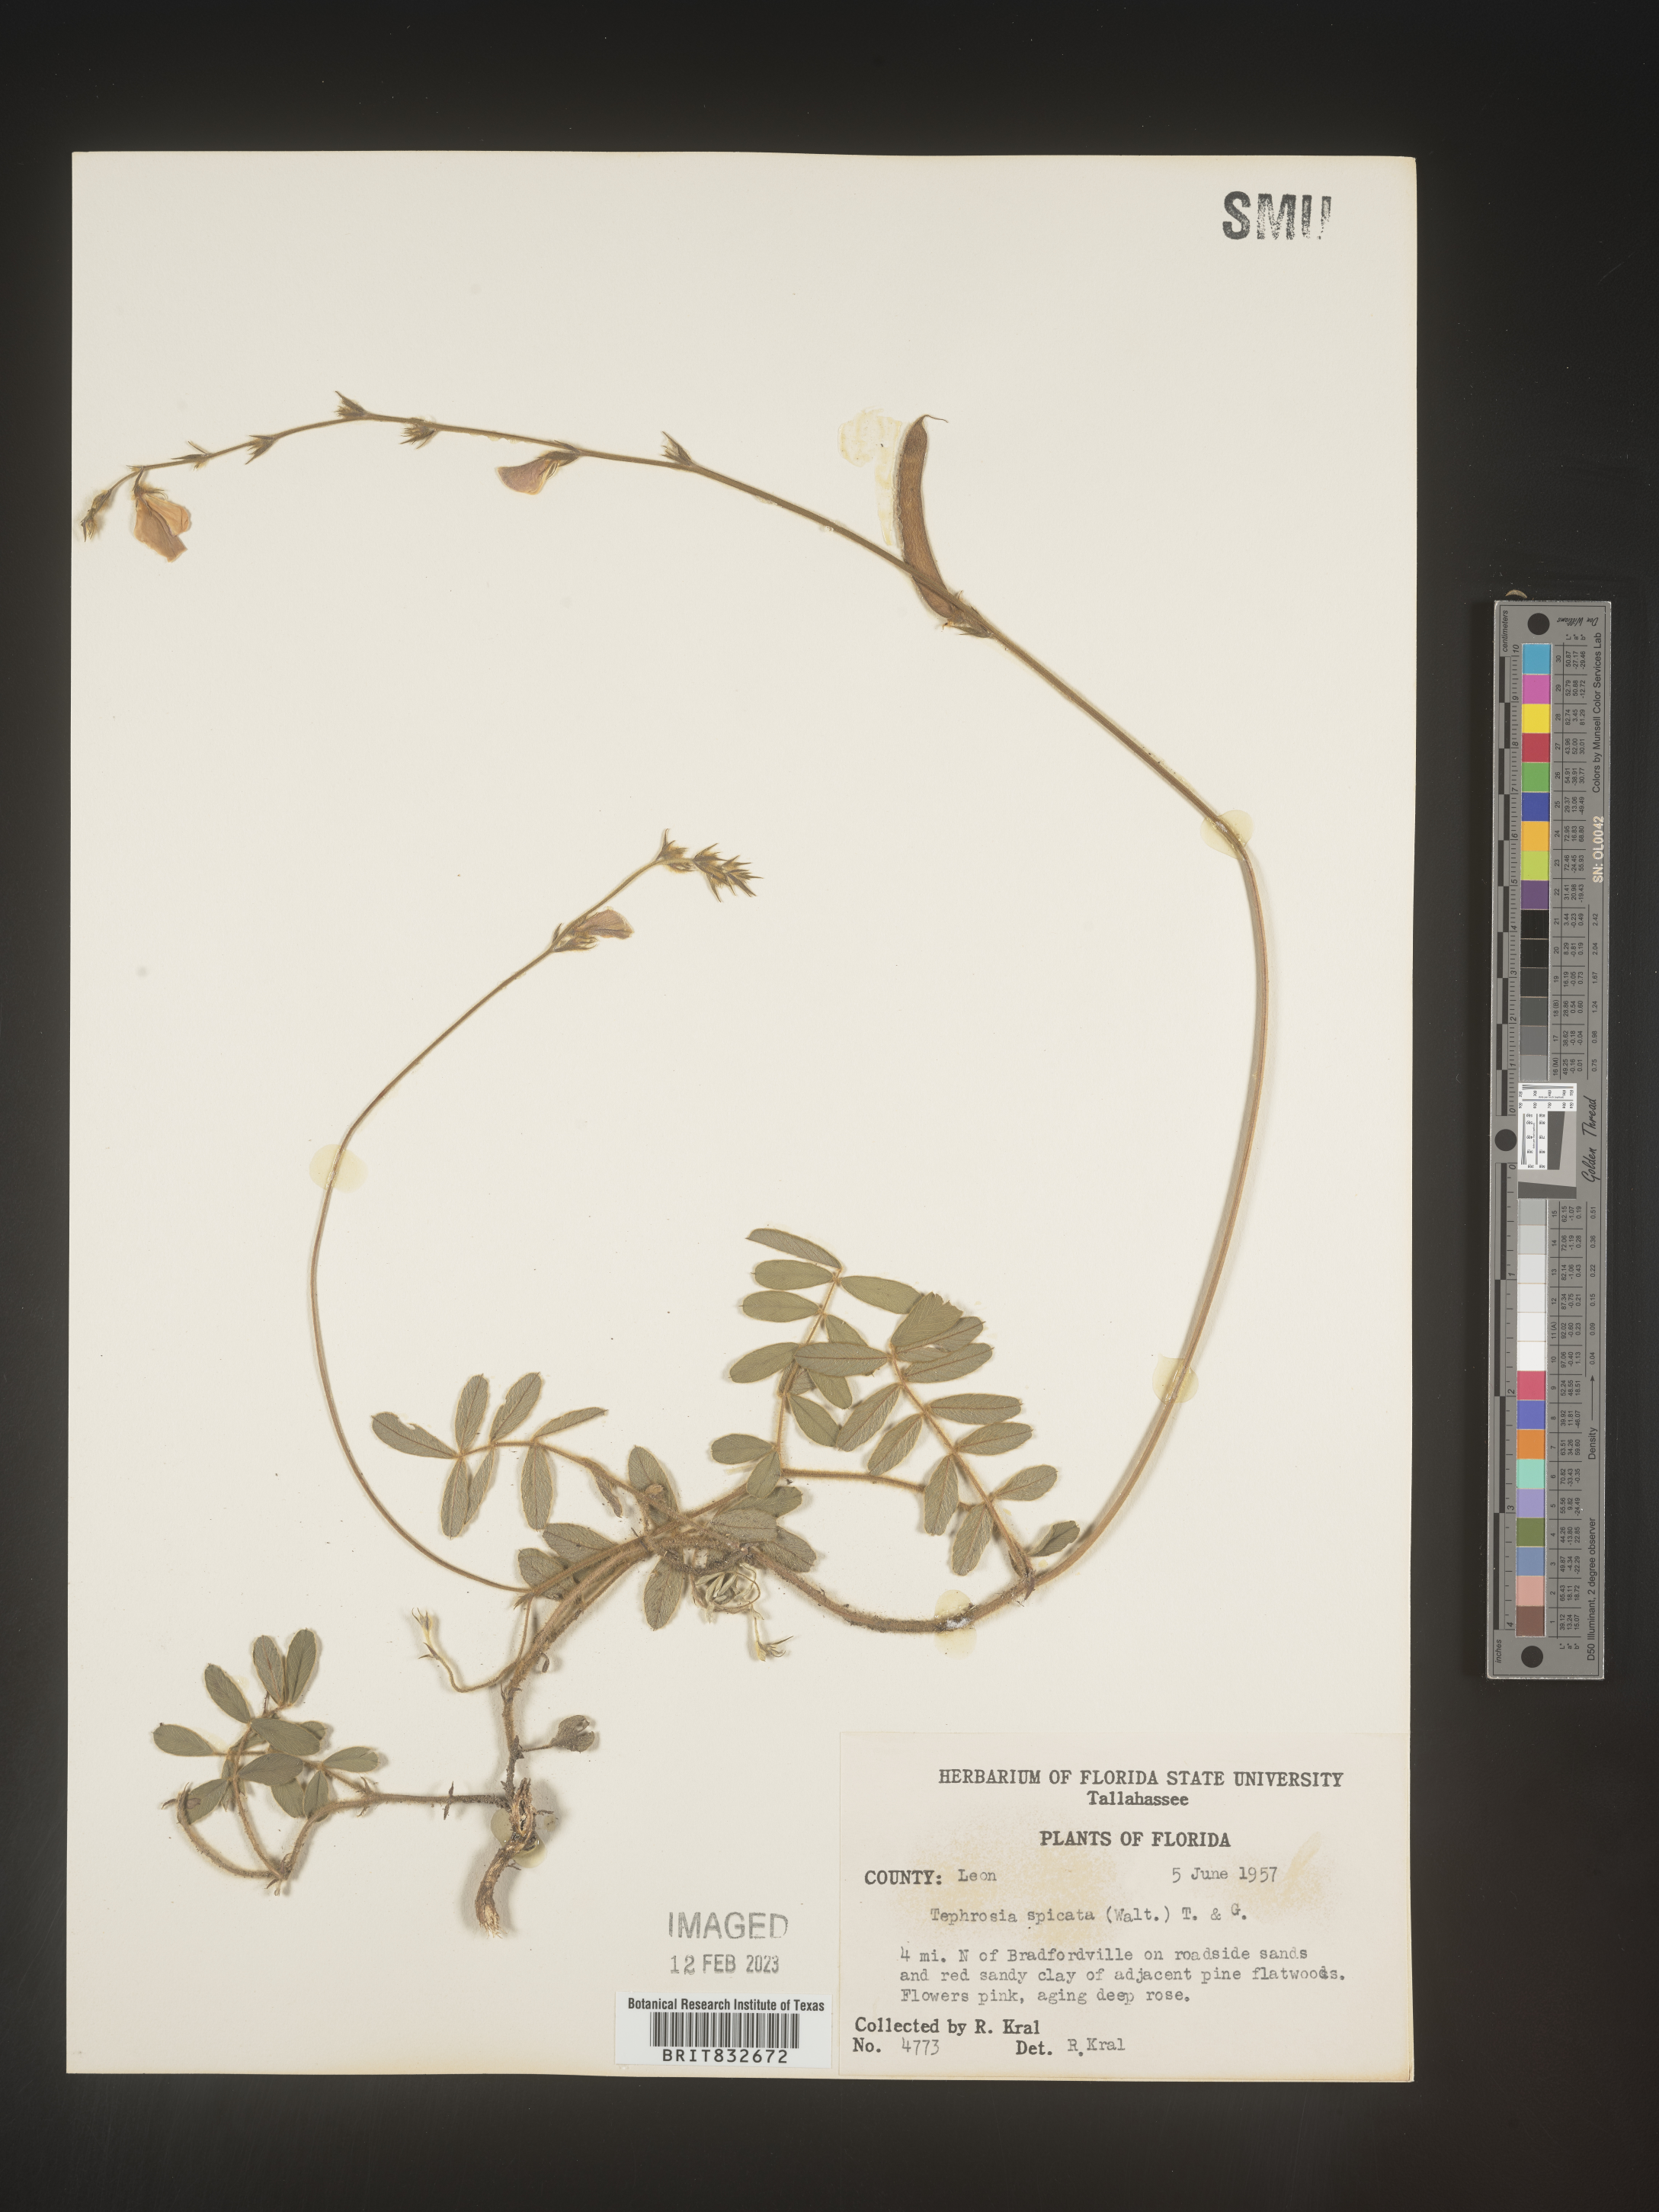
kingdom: Plantae
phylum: Tracheophyta
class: Magnoliopsida
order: Fabales
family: Fabaceae
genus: Tephrosia
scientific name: Tephrosia spicata
